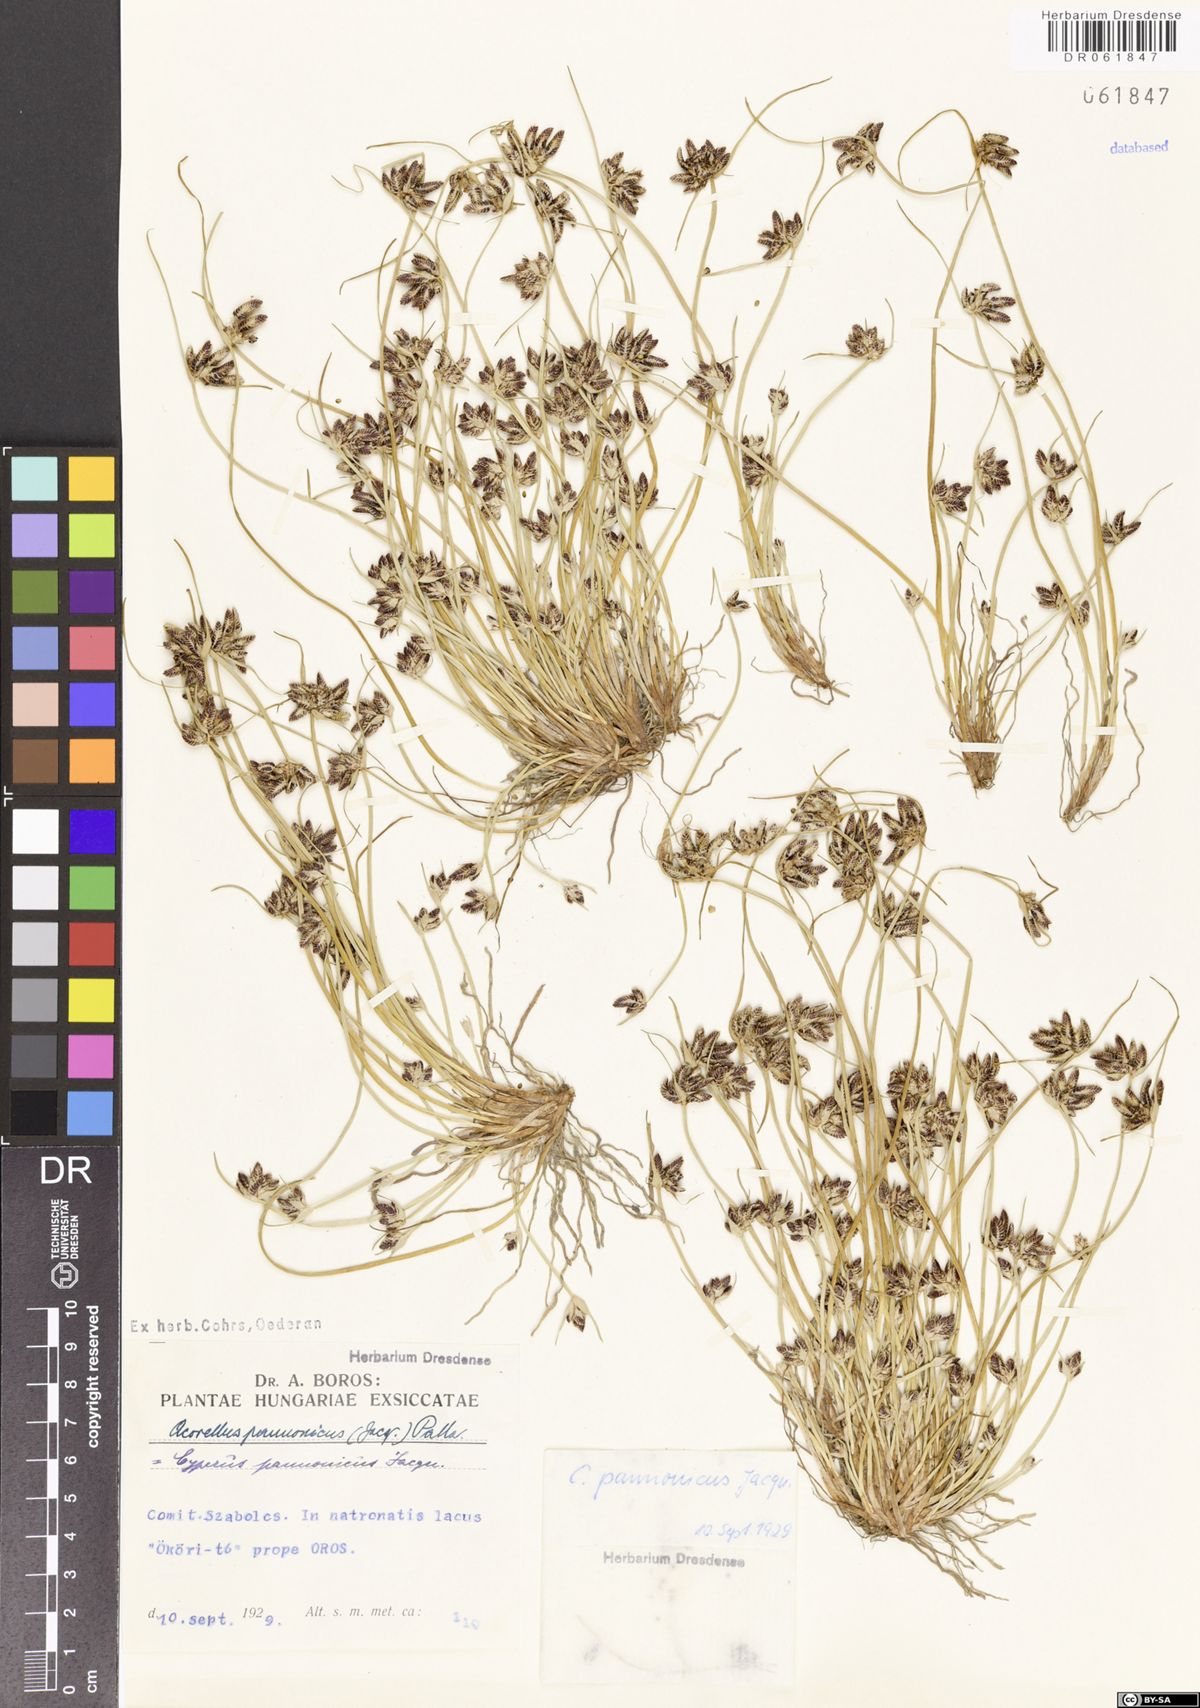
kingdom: Plantae
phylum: Tracheophyta
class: Liliopsida
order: Poales
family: Cyperaceae
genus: Cyperus
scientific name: Cyperus pannonicus
